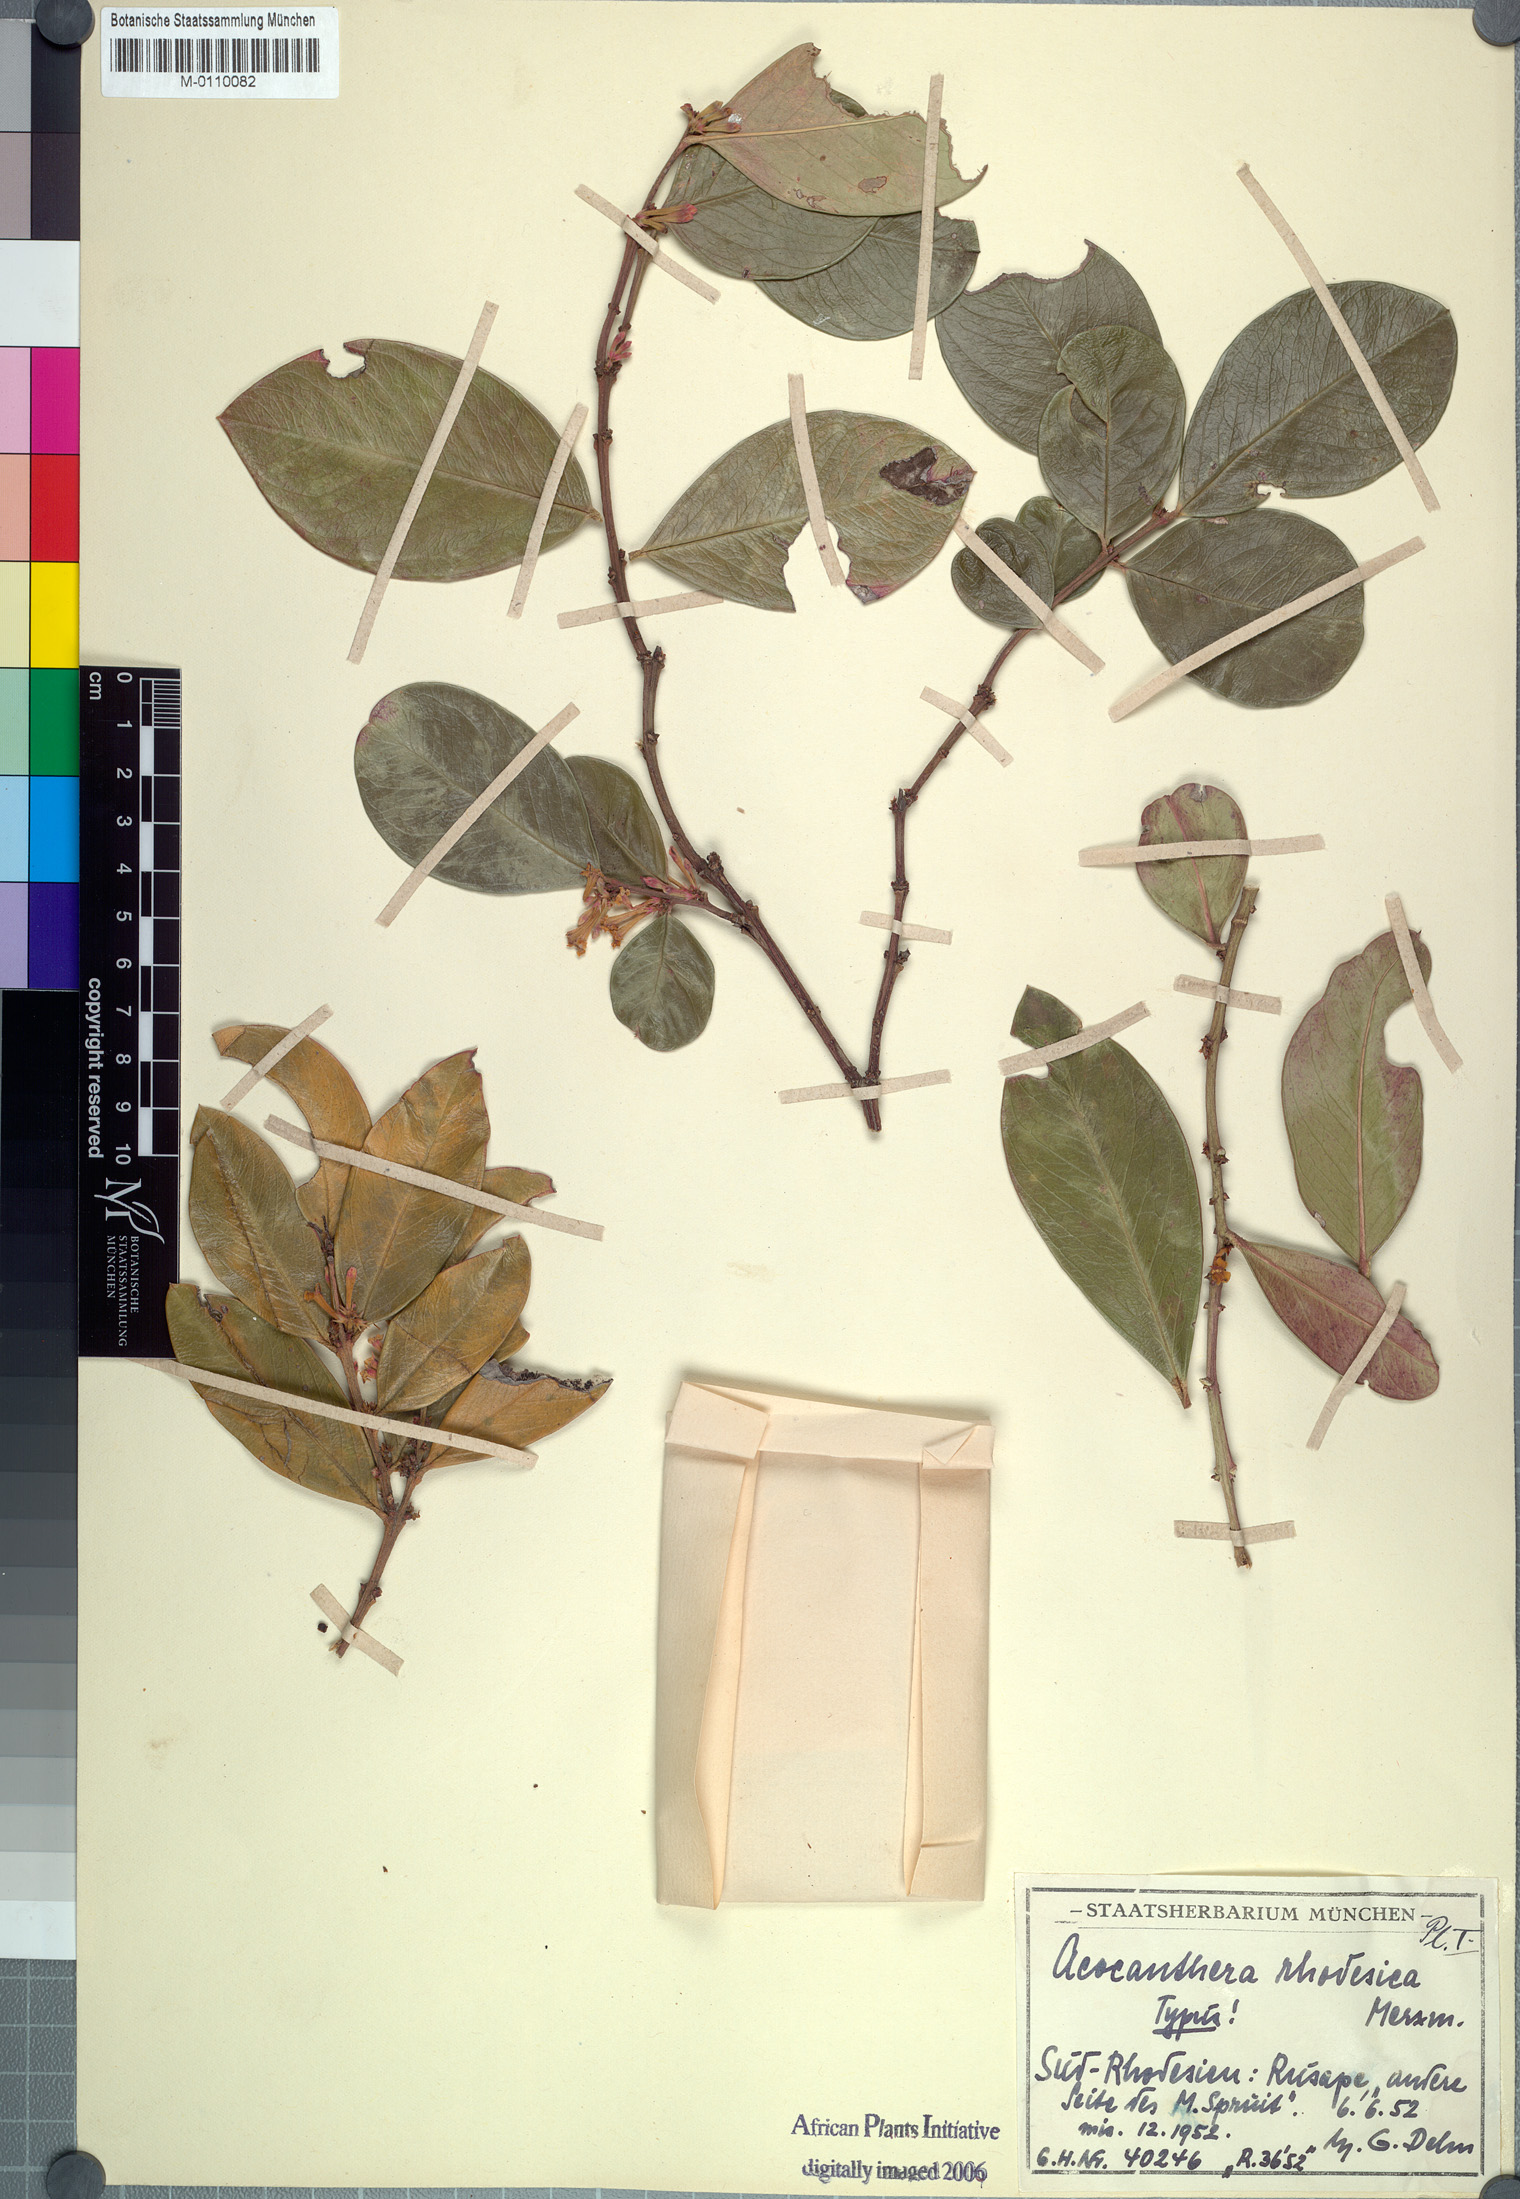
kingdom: Plantae
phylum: Tracheophyta
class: Magnoliopsida
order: Gentianales
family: Apocynaceae
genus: Acokanthera
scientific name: Acokanthera oppositifolia
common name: Bushman's-poison
